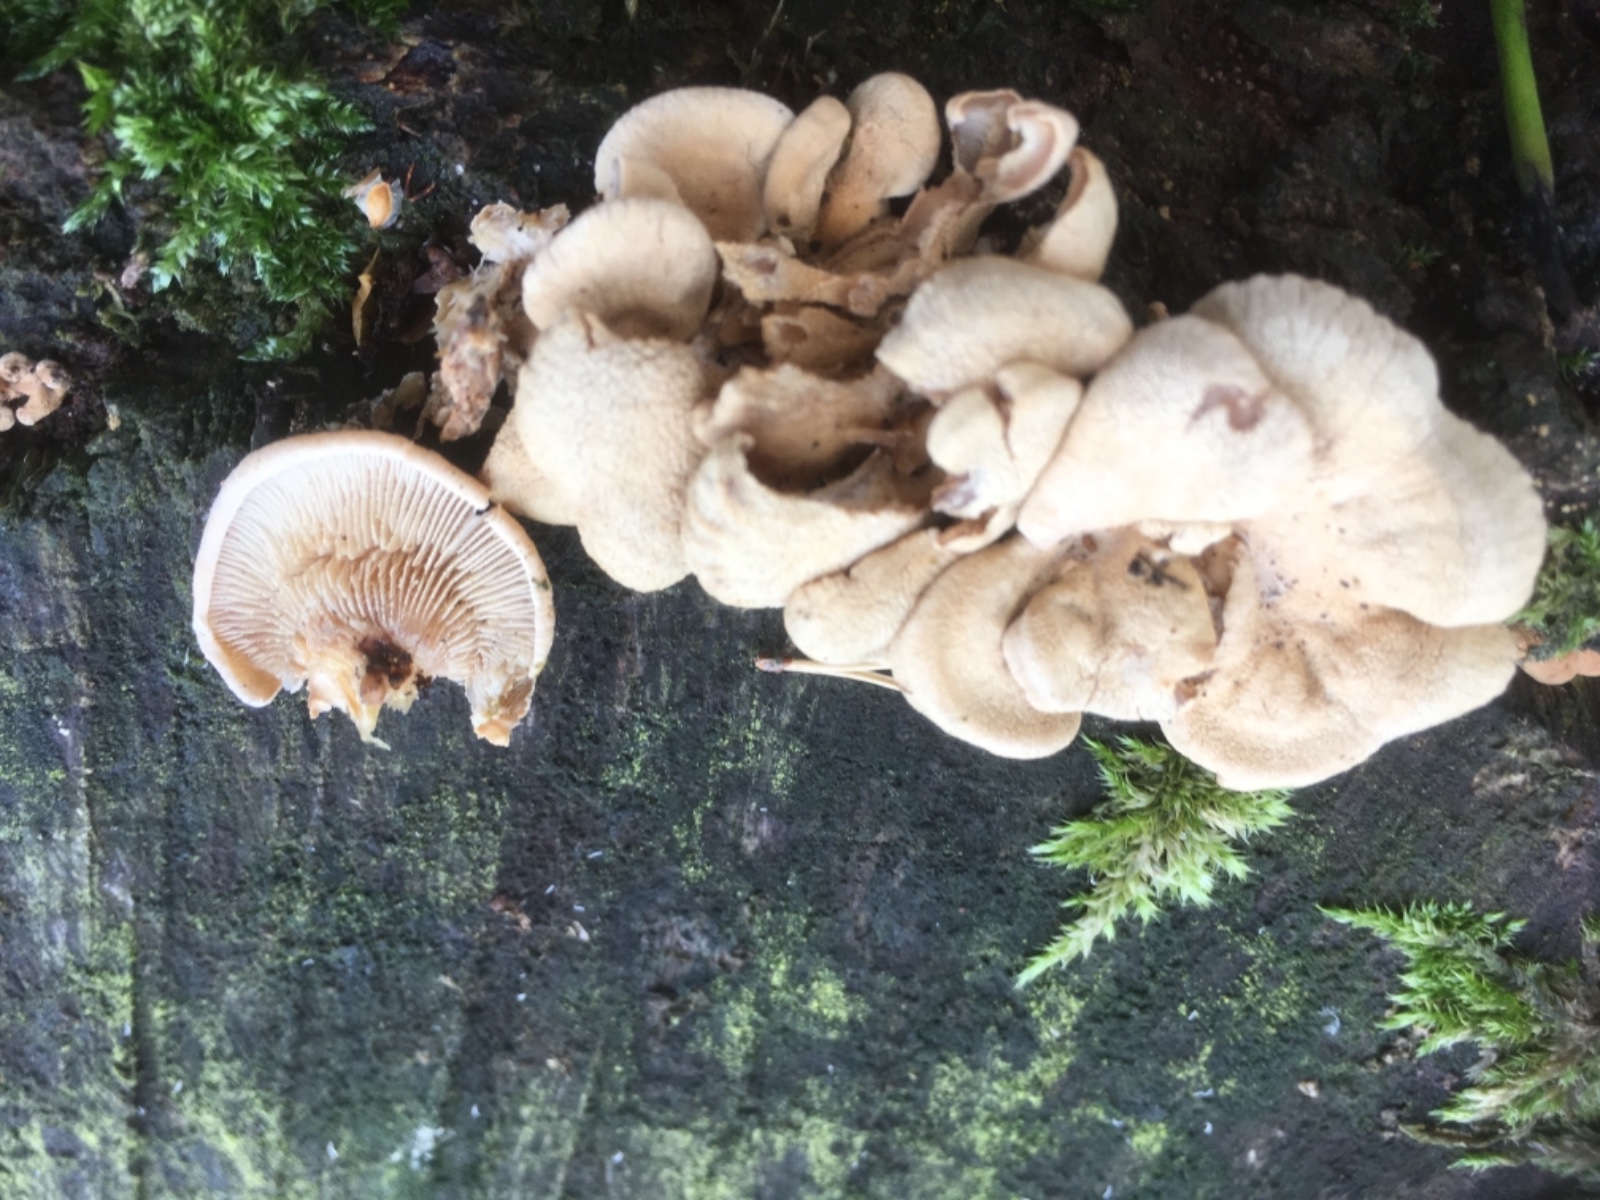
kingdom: Fungi
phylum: Basidiomycota
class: Agaricomycetes
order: Agaricales
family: Mycenaceae
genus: Panellus
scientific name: Panellus stipticus
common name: kliddet epaulethat
